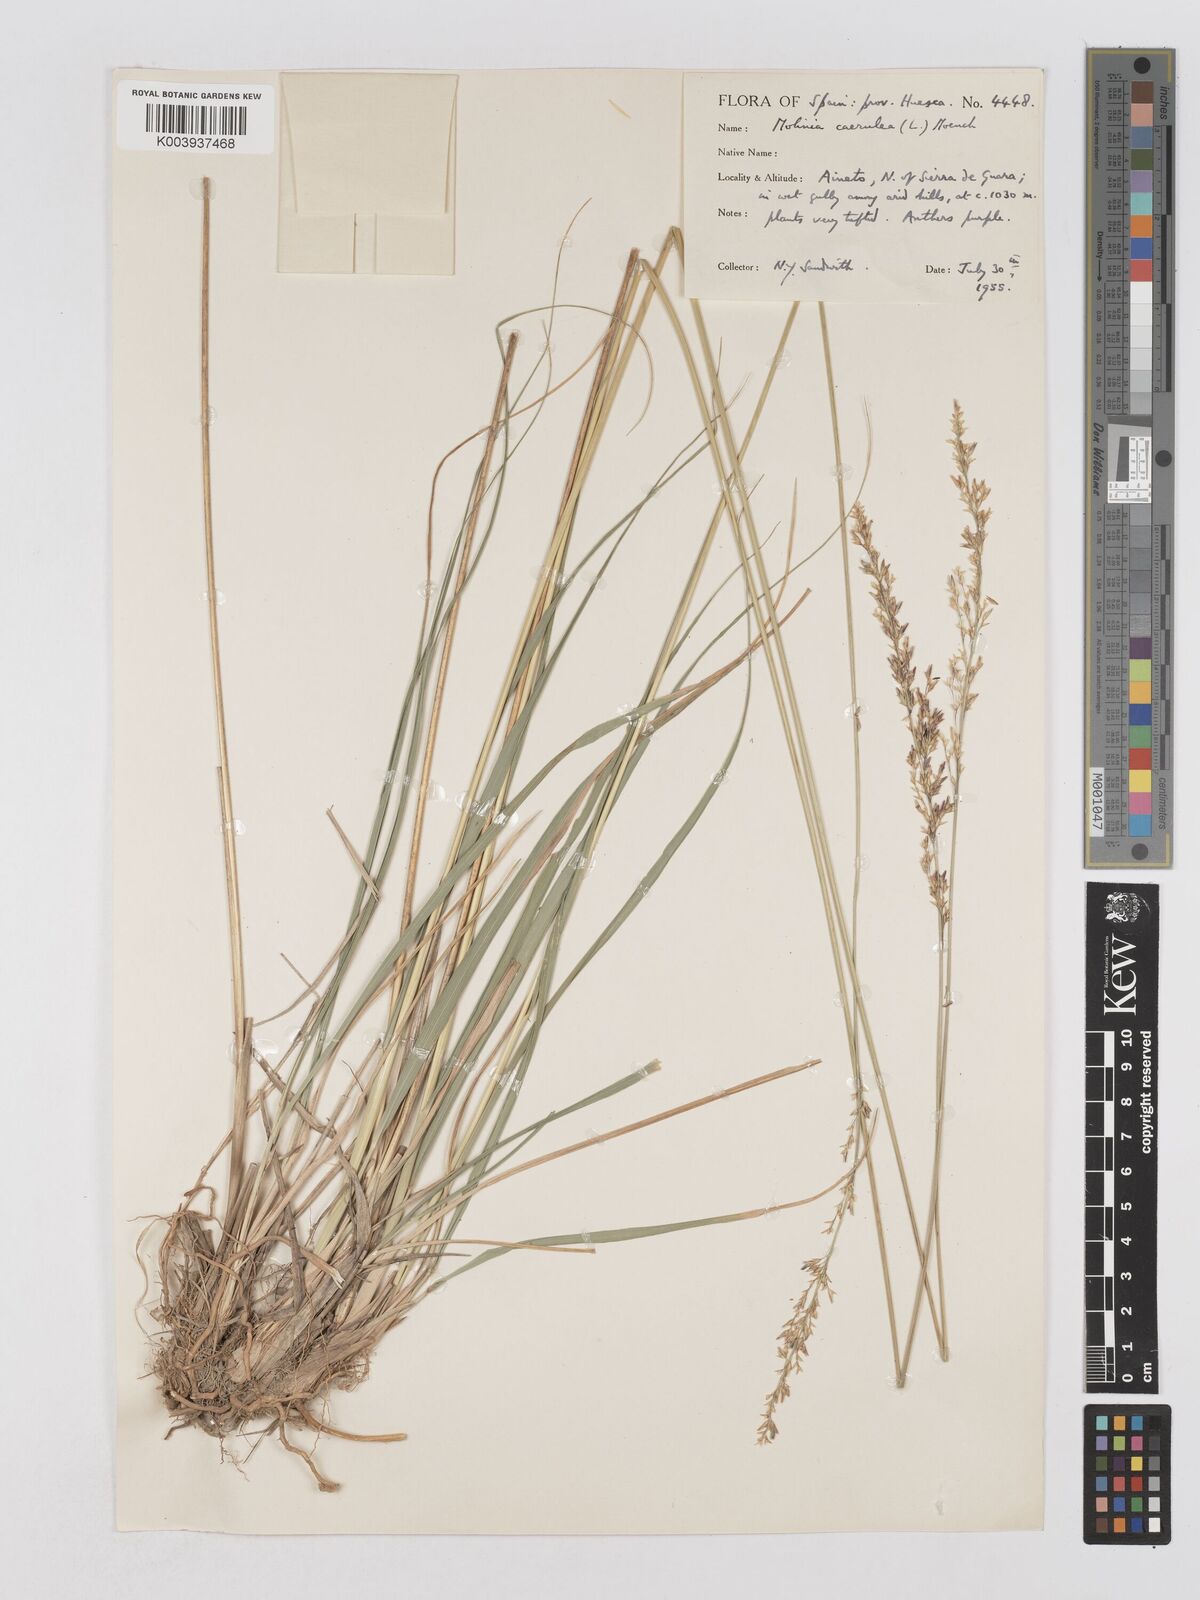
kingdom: Plantae
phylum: Tracheophyta
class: Liliopsida
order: Poales
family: Poaceae
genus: Molinia
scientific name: Molinia caerulea
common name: Purple moor-grass
